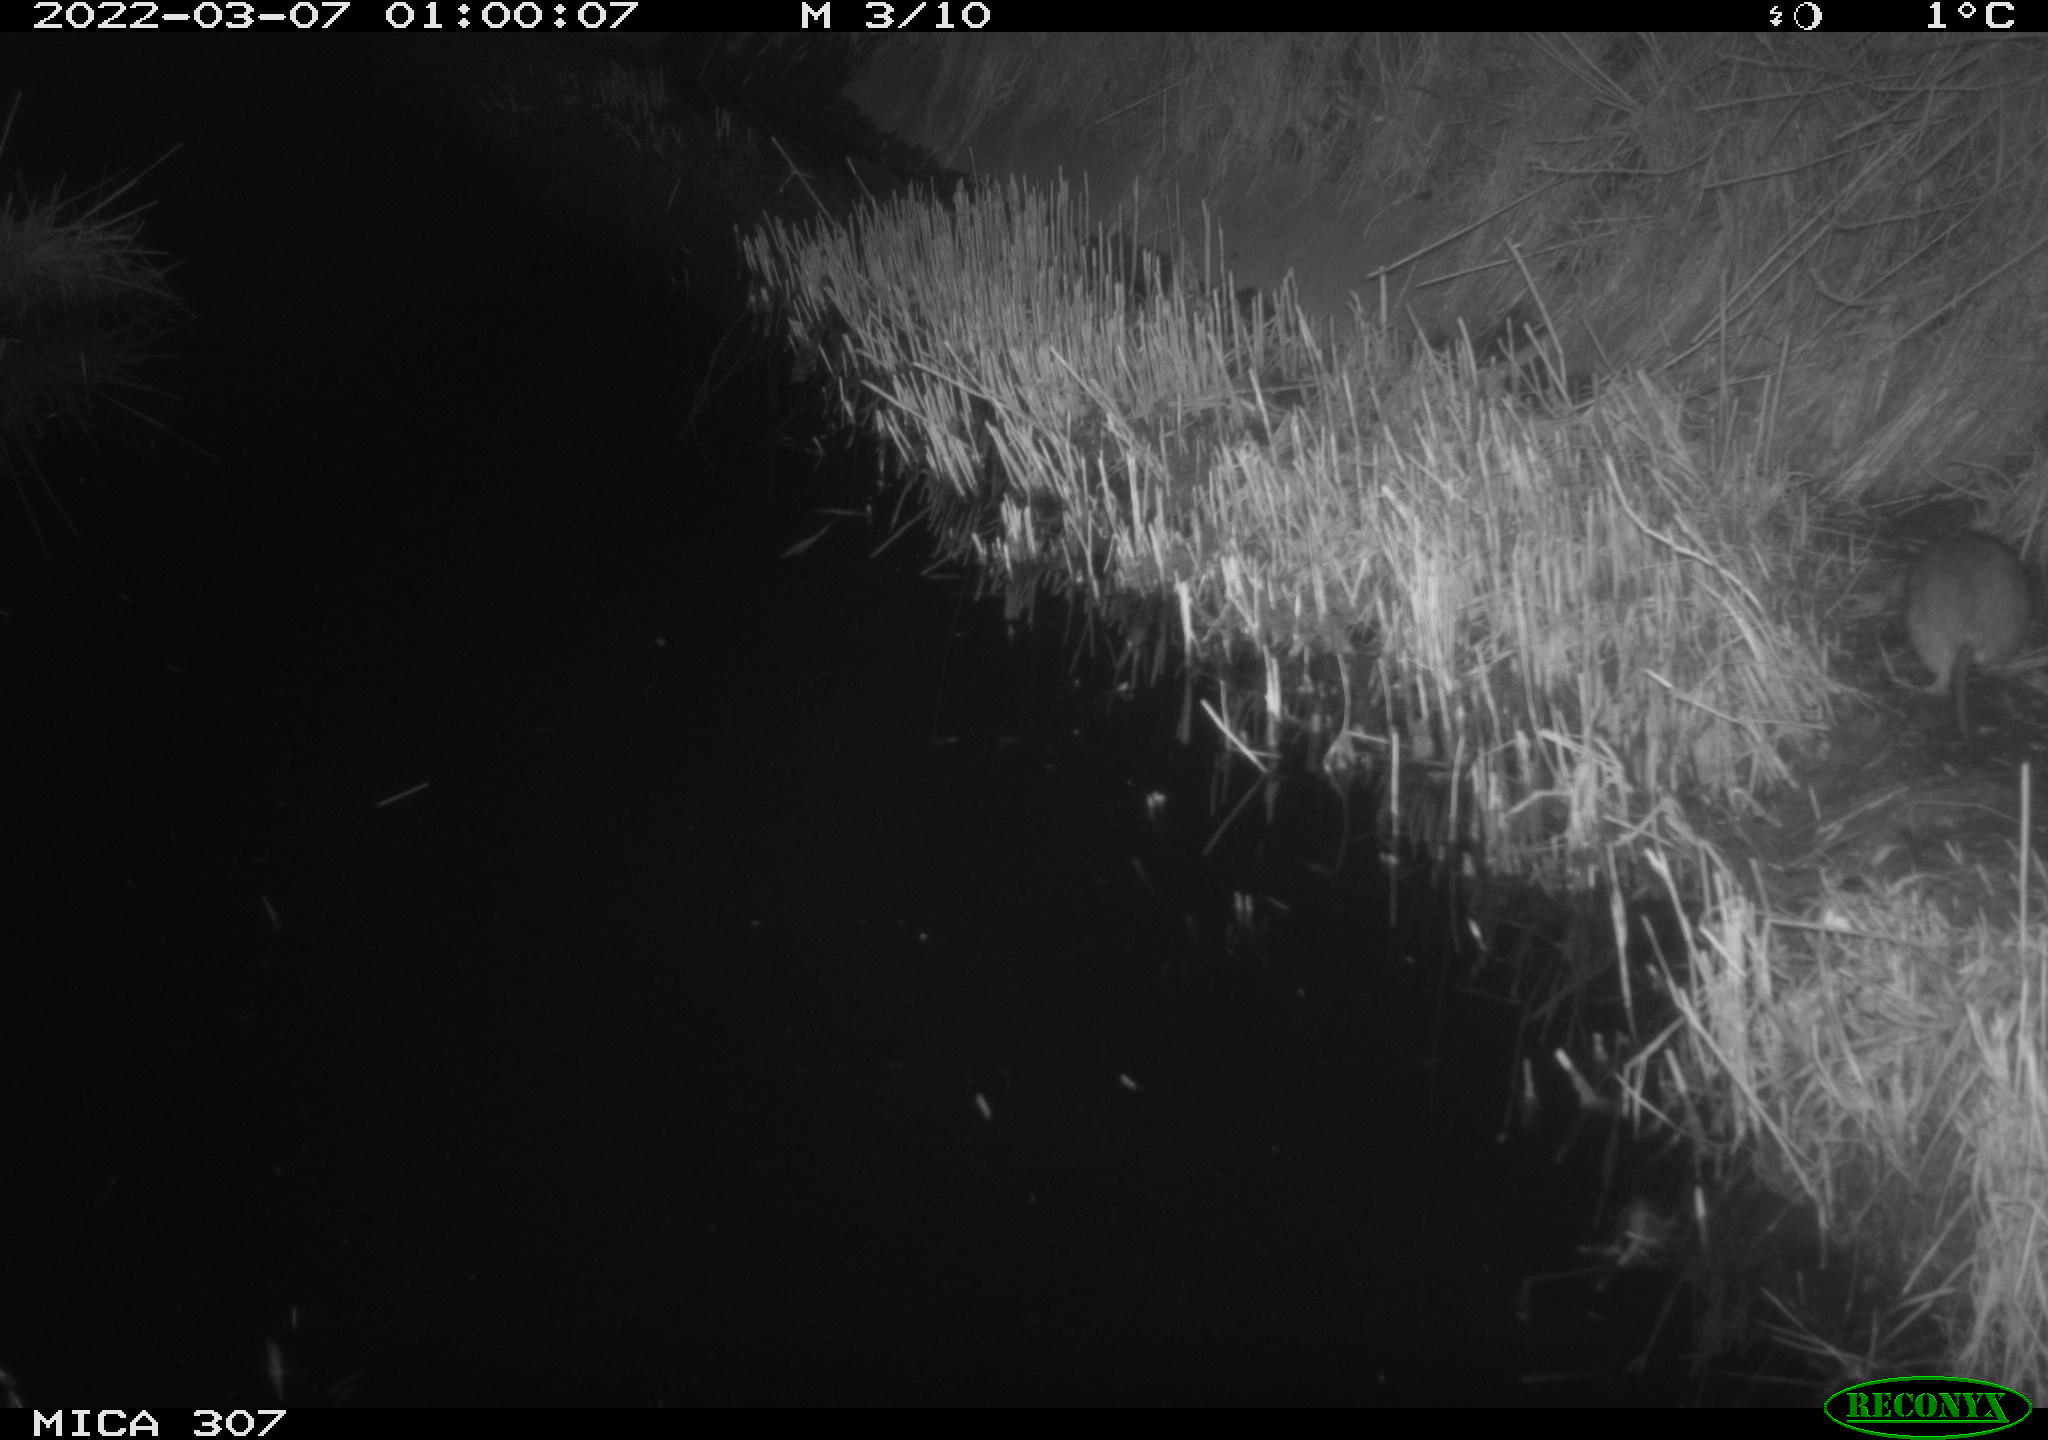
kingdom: Animalia
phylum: Chordata
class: Mammalia
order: Rodentia
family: Muridae
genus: Rattus
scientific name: Rattus norvegicus
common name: Brown rat
